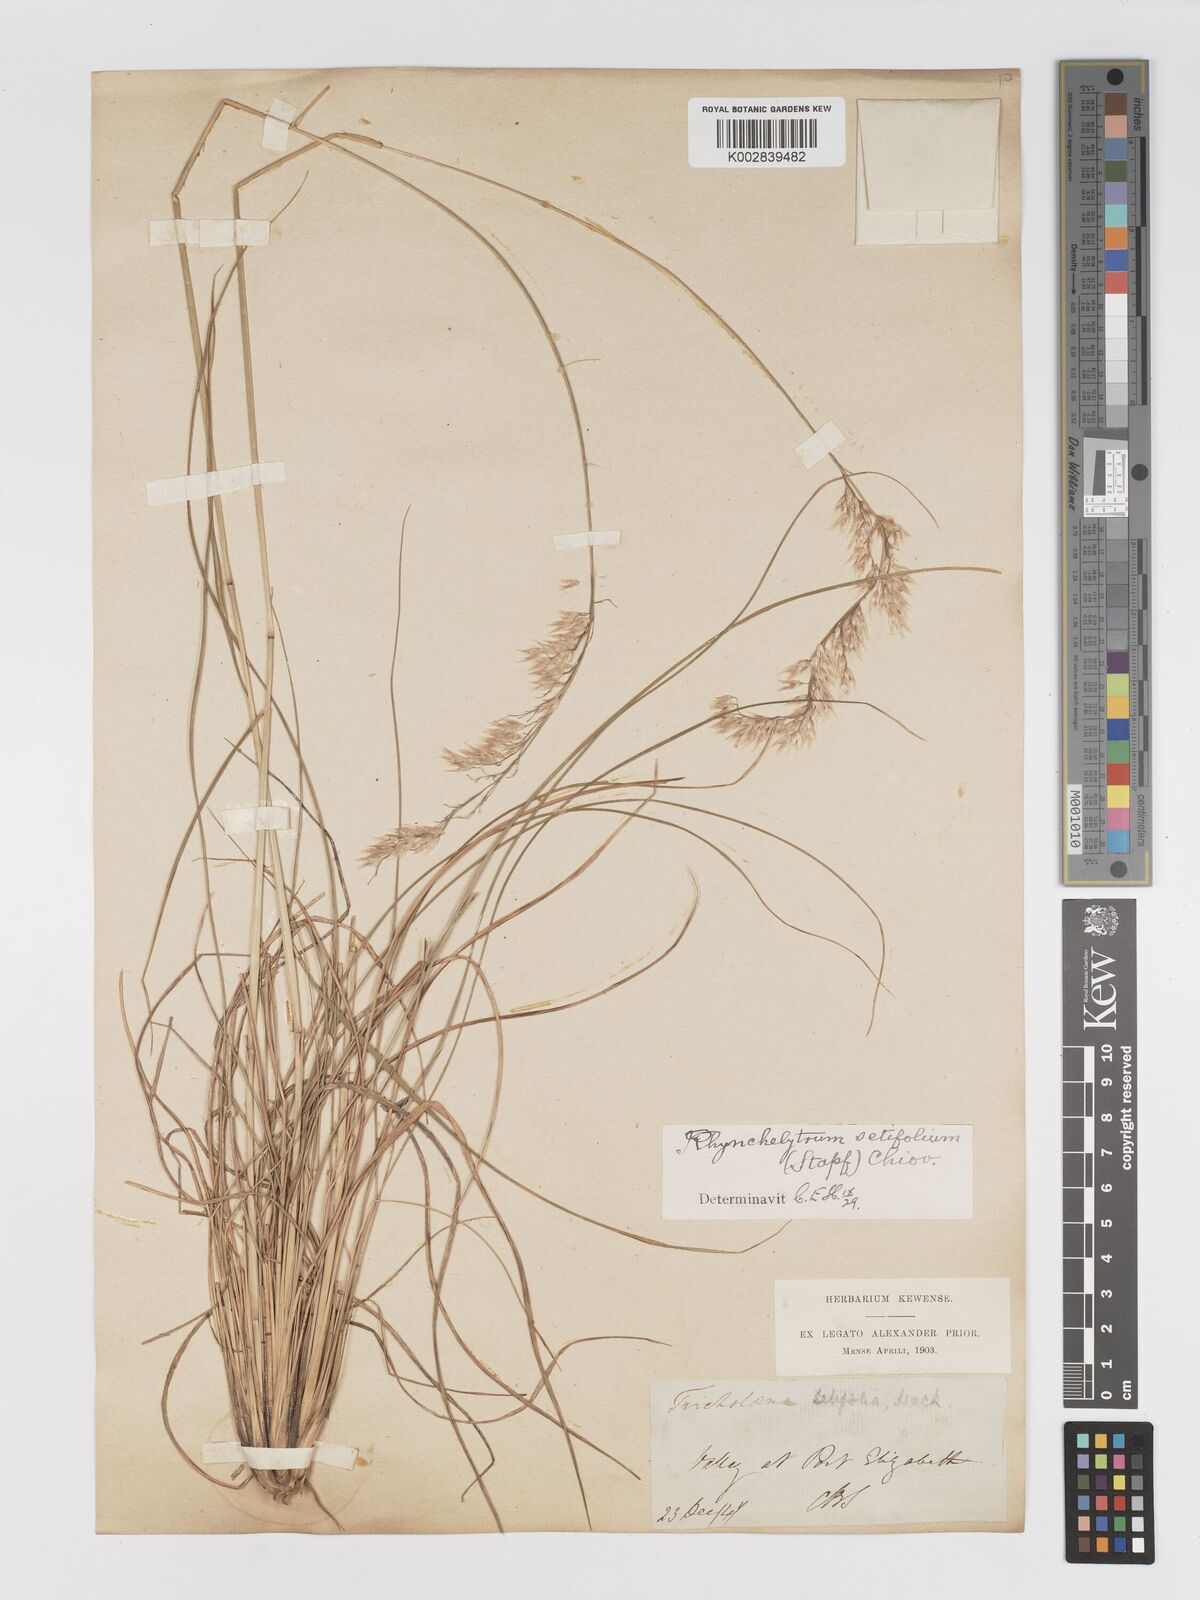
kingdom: Plantae
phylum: Tracheophyta
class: Liliopsida
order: Poales
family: Poaceae
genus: Melinis
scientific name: Melinis nerviglumis
